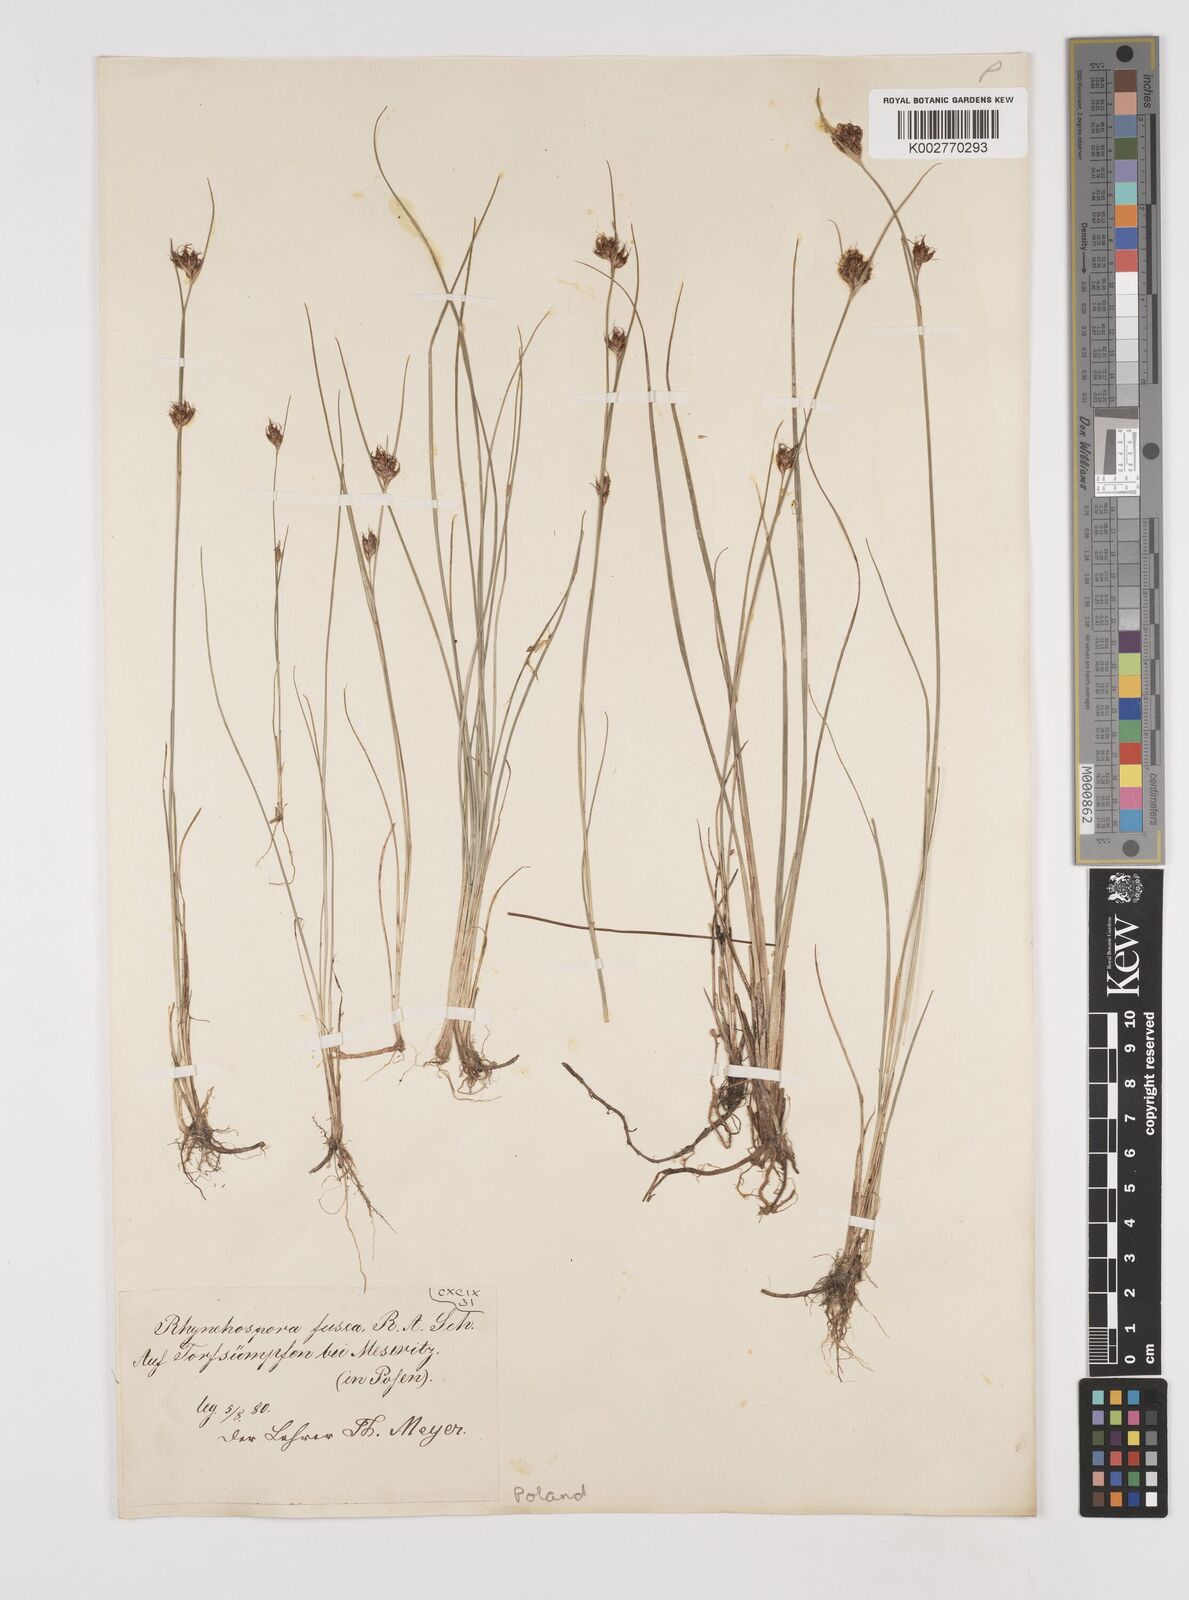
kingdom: Plantae
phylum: Tracheophyta
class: Liliopsida
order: Poales
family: Cyperaceae
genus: Rhynchospora
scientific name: Rhynchospora fusca
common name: Brown beak-sedge
